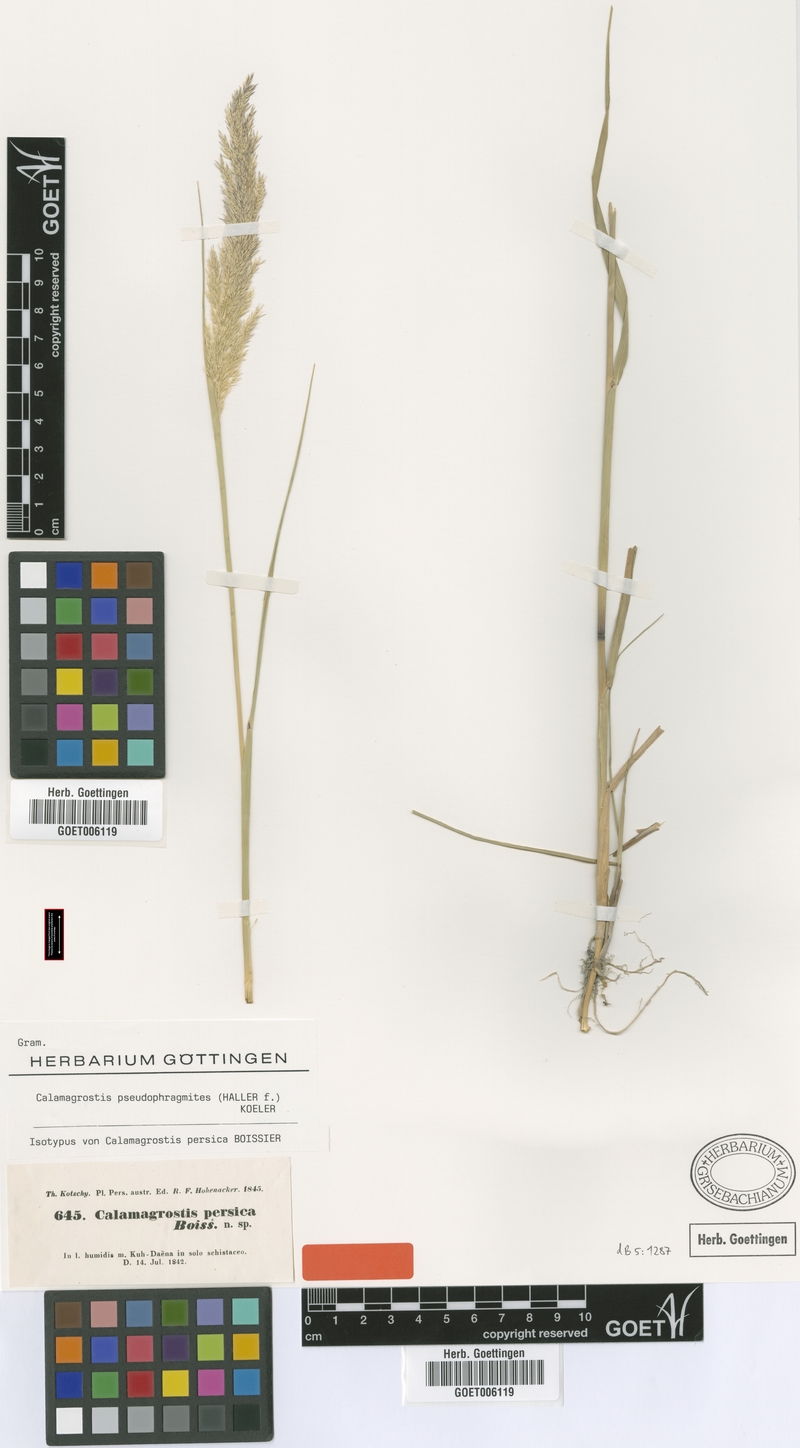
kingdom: Plantae
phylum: Tracheophyta
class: Liliopsida
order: Poales
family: Poaceae
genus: Calamagrostis
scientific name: Calamagrostis pseudophragmites
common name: Coastal small-reed
